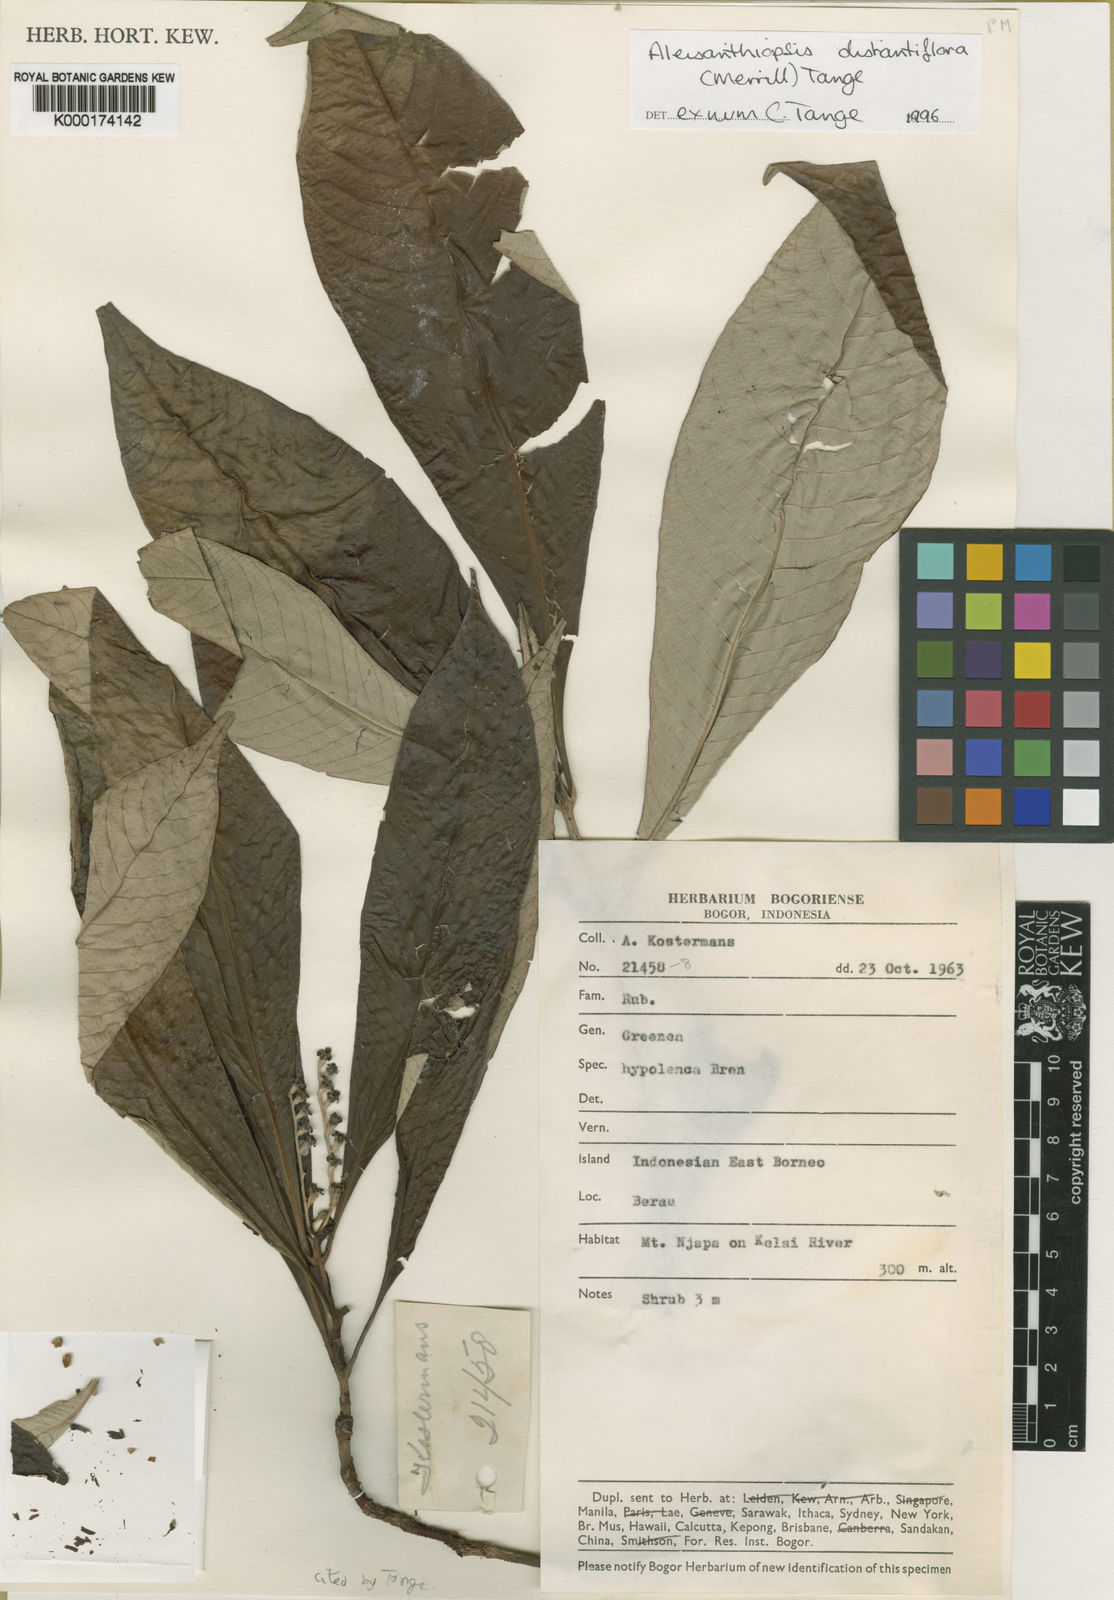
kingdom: Plantae
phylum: Tracheophyta
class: Magnoliopsida
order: Gentianales
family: Rubiaceae
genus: Aleisanthiopsis
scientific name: Aleisanthiopsis distantiflora
